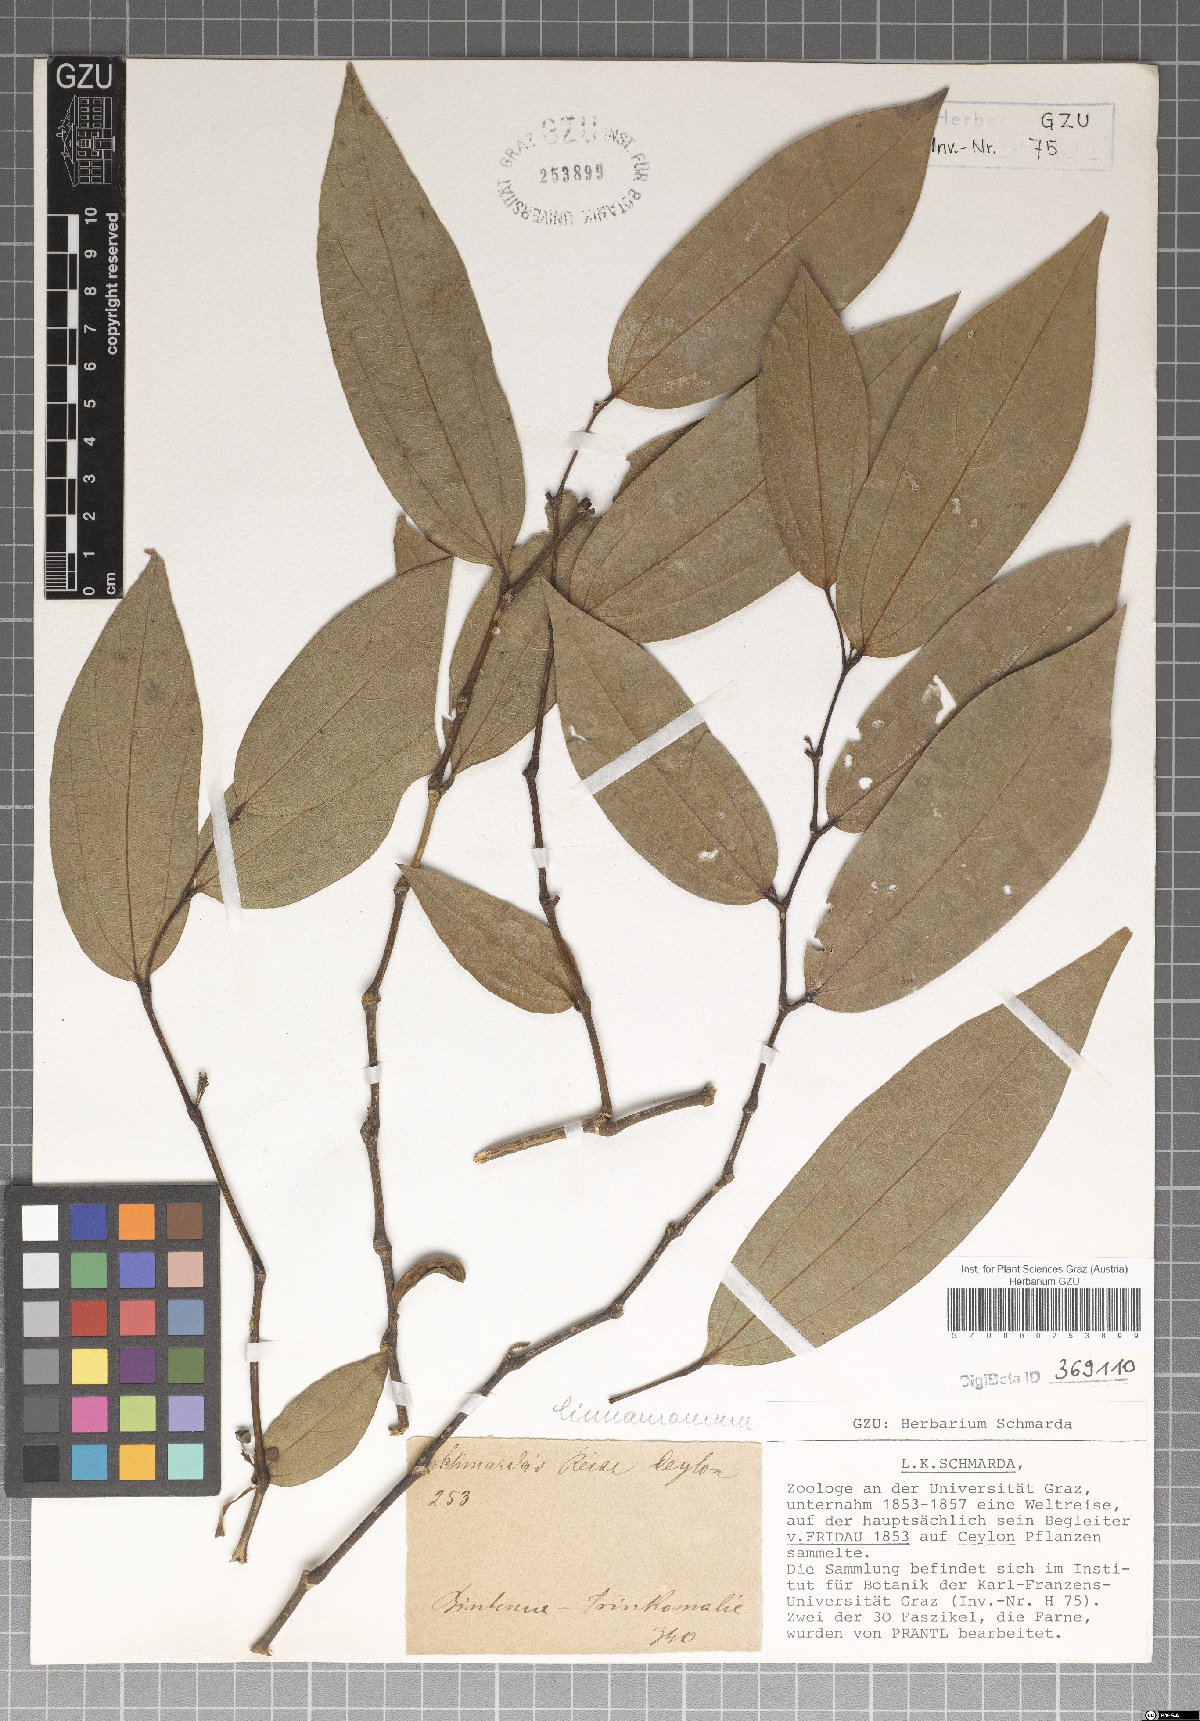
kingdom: Plantae
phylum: Tracheophyta
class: Magnoliopsida
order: Laurales
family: Lauraceae
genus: Cinnamomum
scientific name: Cinnamomum
